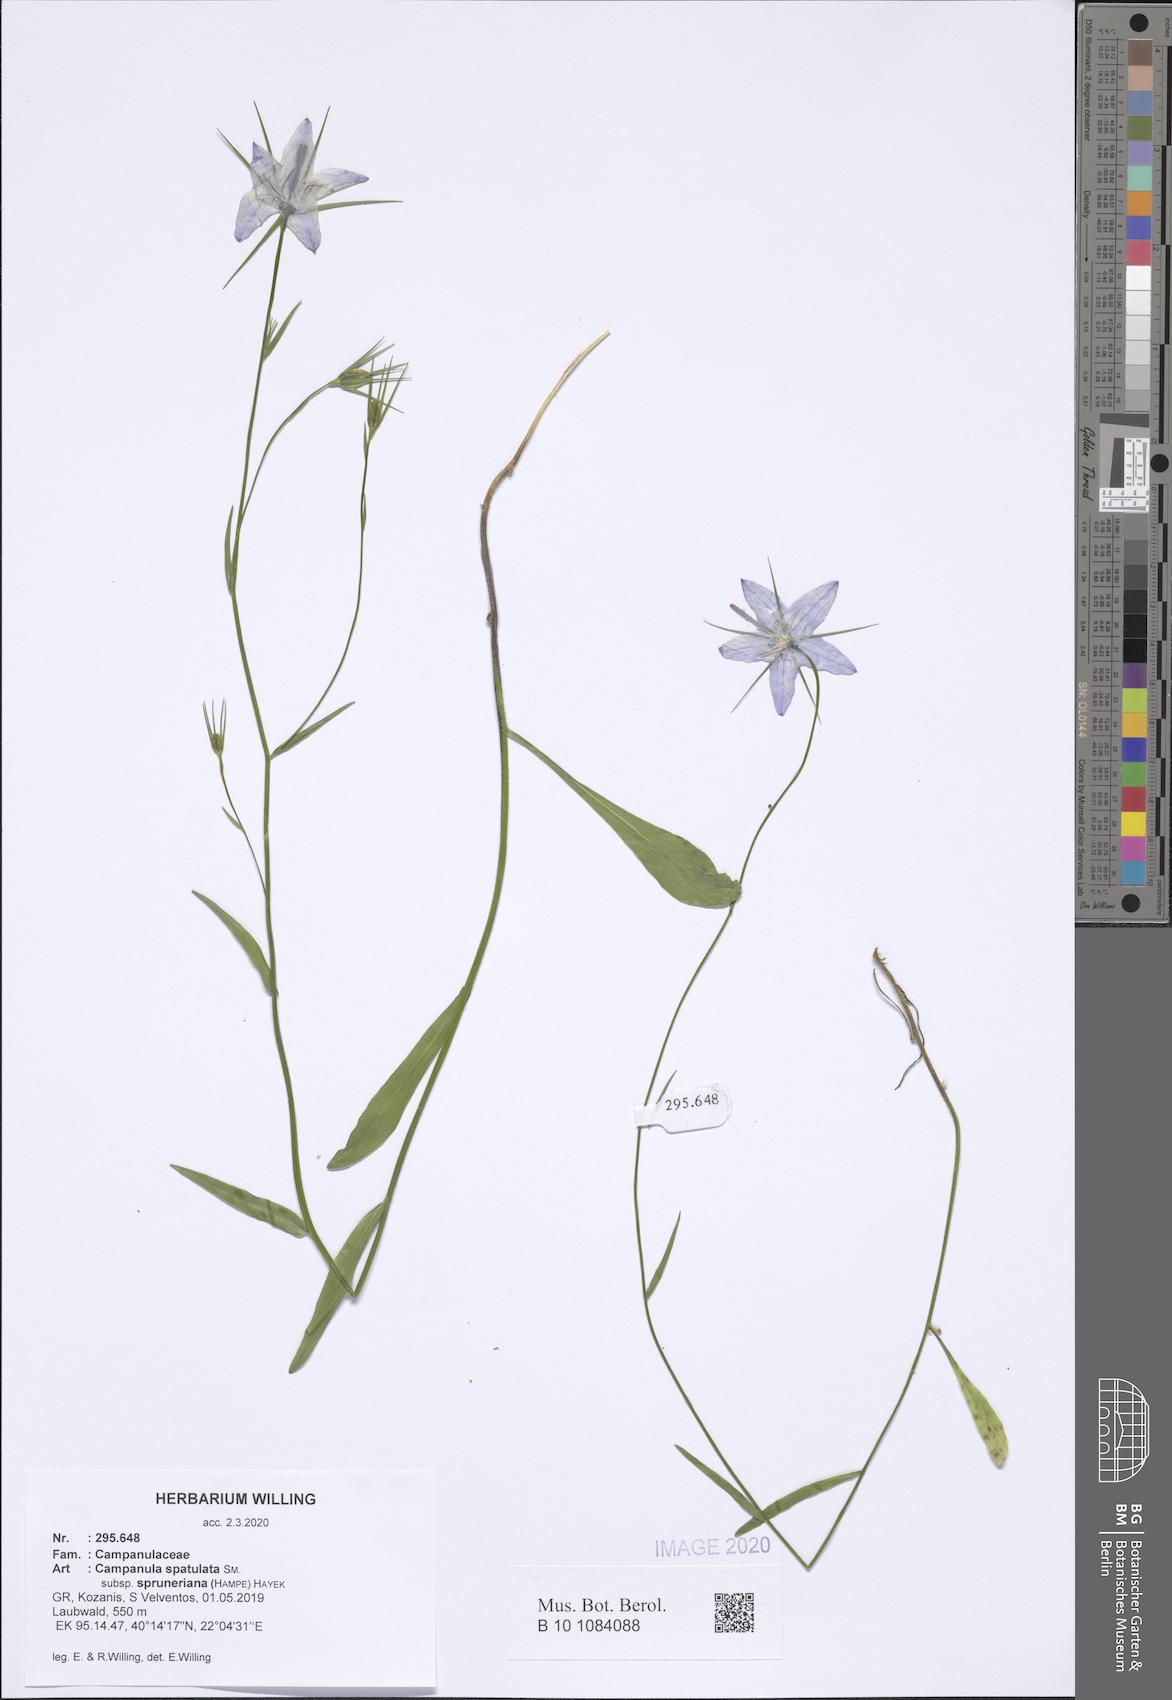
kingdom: Plantae
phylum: Tracheophyta
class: Magnoliopsida
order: Asterales
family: Campanulaceae
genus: Campanula
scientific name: Campanula spatulata
